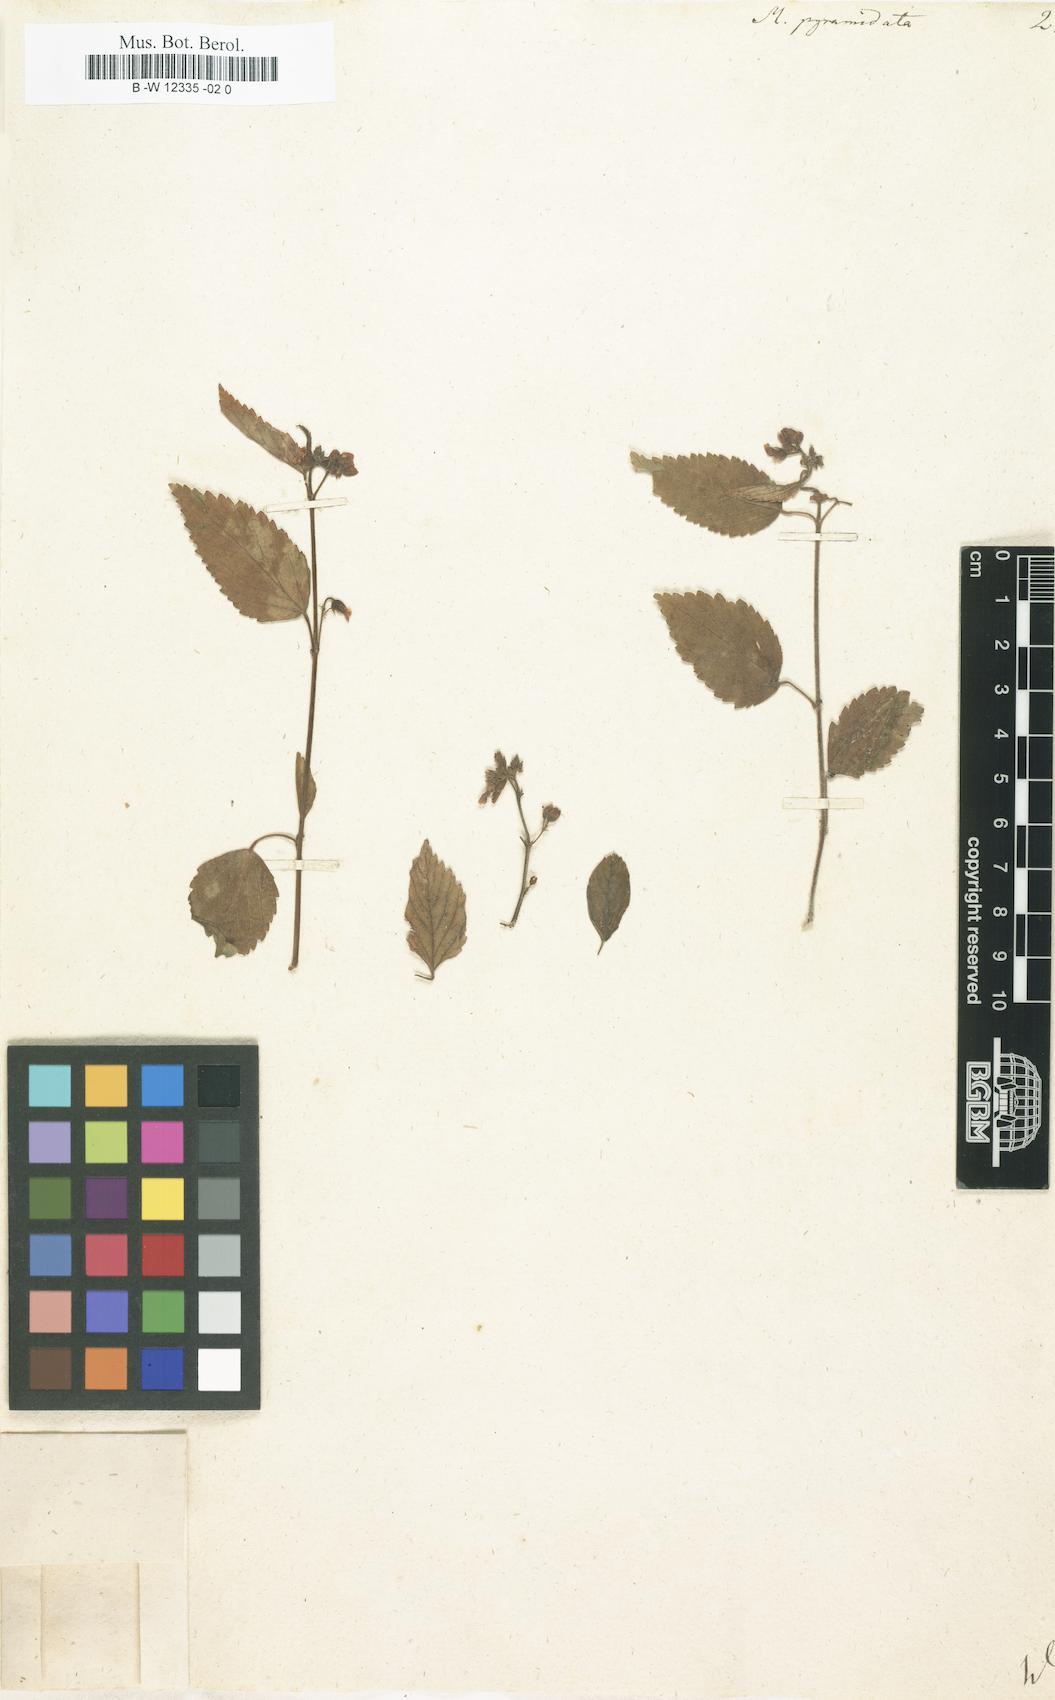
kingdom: Plantae
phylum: Tracheophyta
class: Magnoliopsida
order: Malvales
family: Malvaceae
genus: Melochia
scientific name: Melochia pyramidata
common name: Pyramidflower
